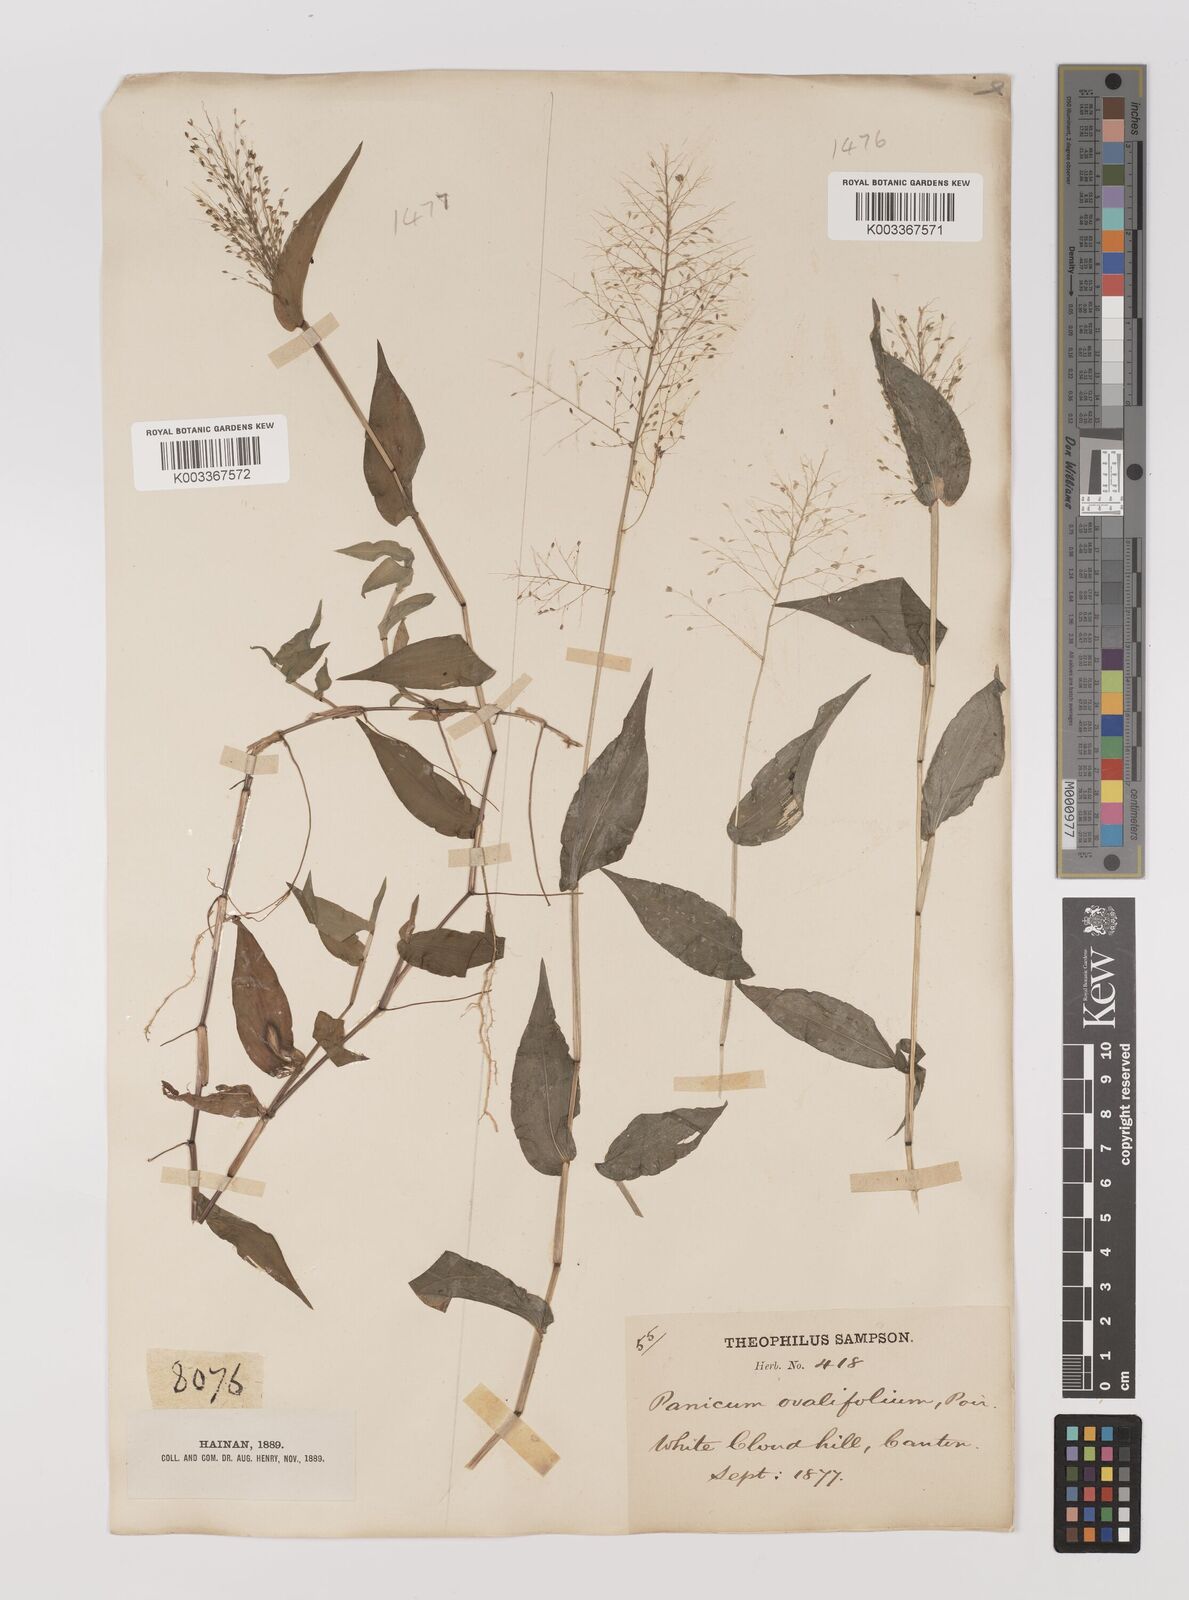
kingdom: Plantae
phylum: Tracheophyta
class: Liliopsida
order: Poales
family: Poaceae
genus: Panicum
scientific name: Panicum brevifolium
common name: Shortleaf panic grass
